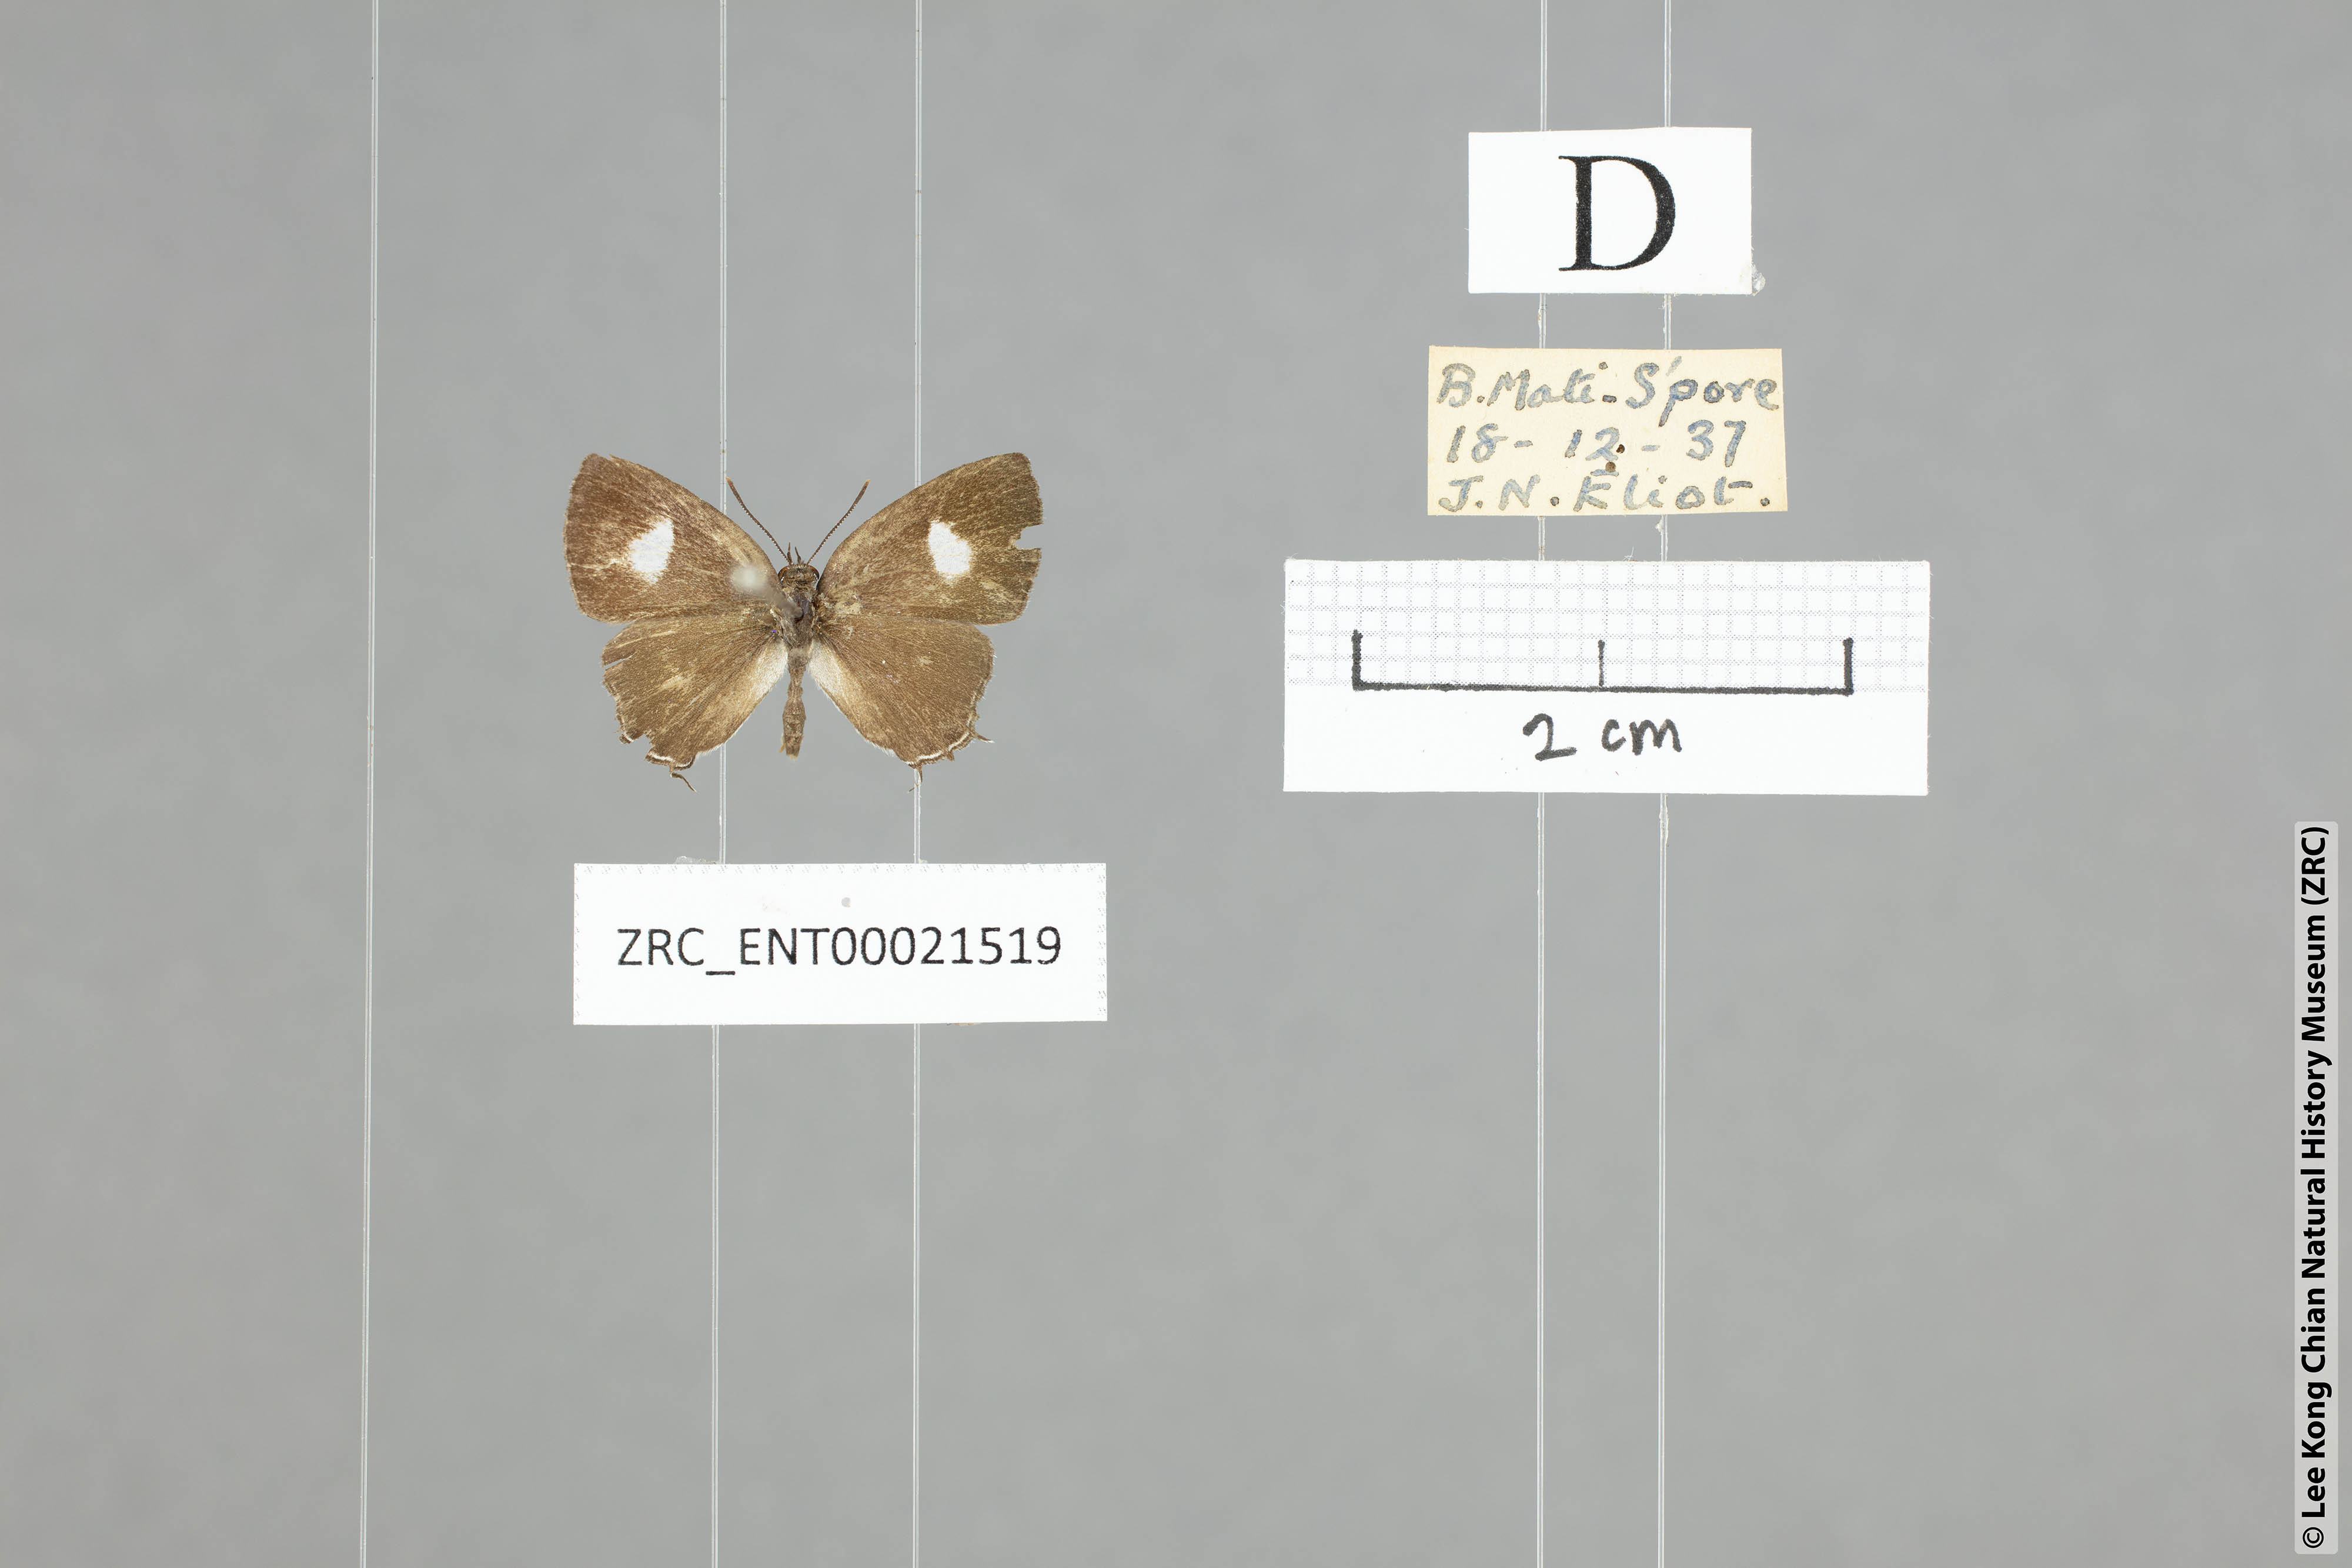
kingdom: Animalia
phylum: Arthropoda
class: Insecta
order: Lepidoptera
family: Lycaenidae
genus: Horaga
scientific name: Horaga albimacula
